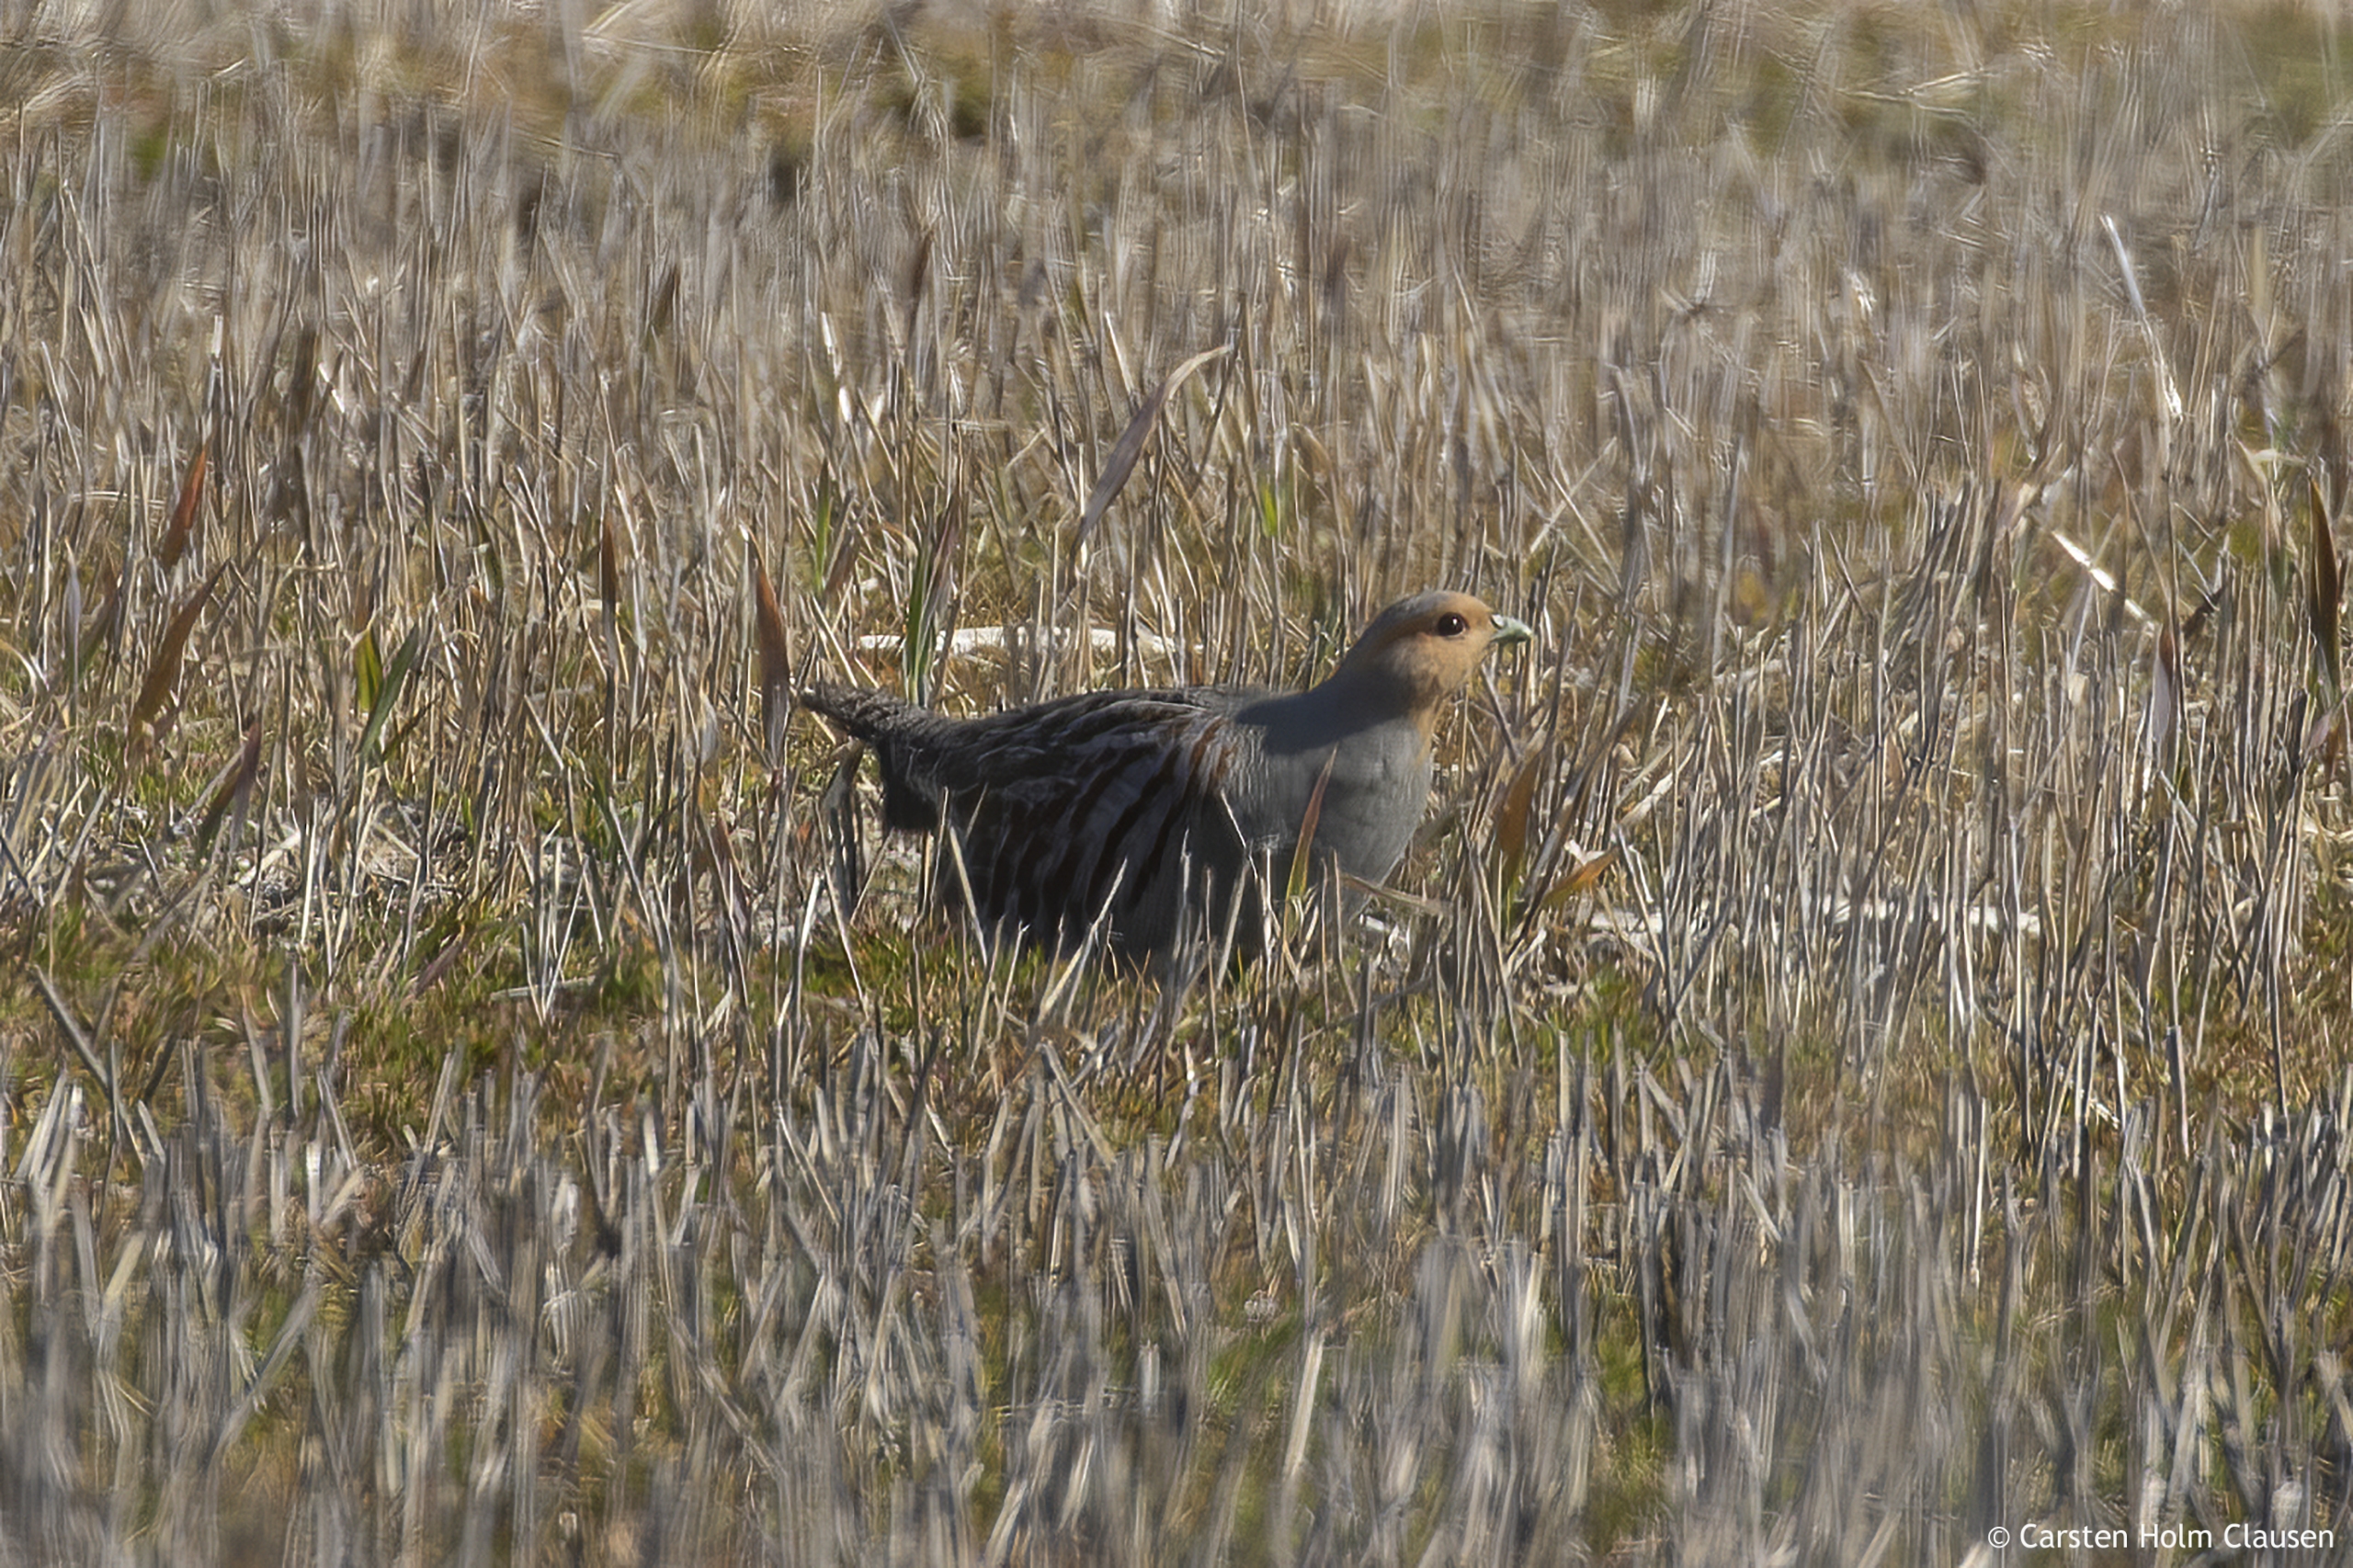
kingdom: Animalia
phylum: Chordata
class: Aves
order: Galliformes
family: Phasianidae
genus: Perdix
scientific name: Perdix perdix
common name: Agerhøne
